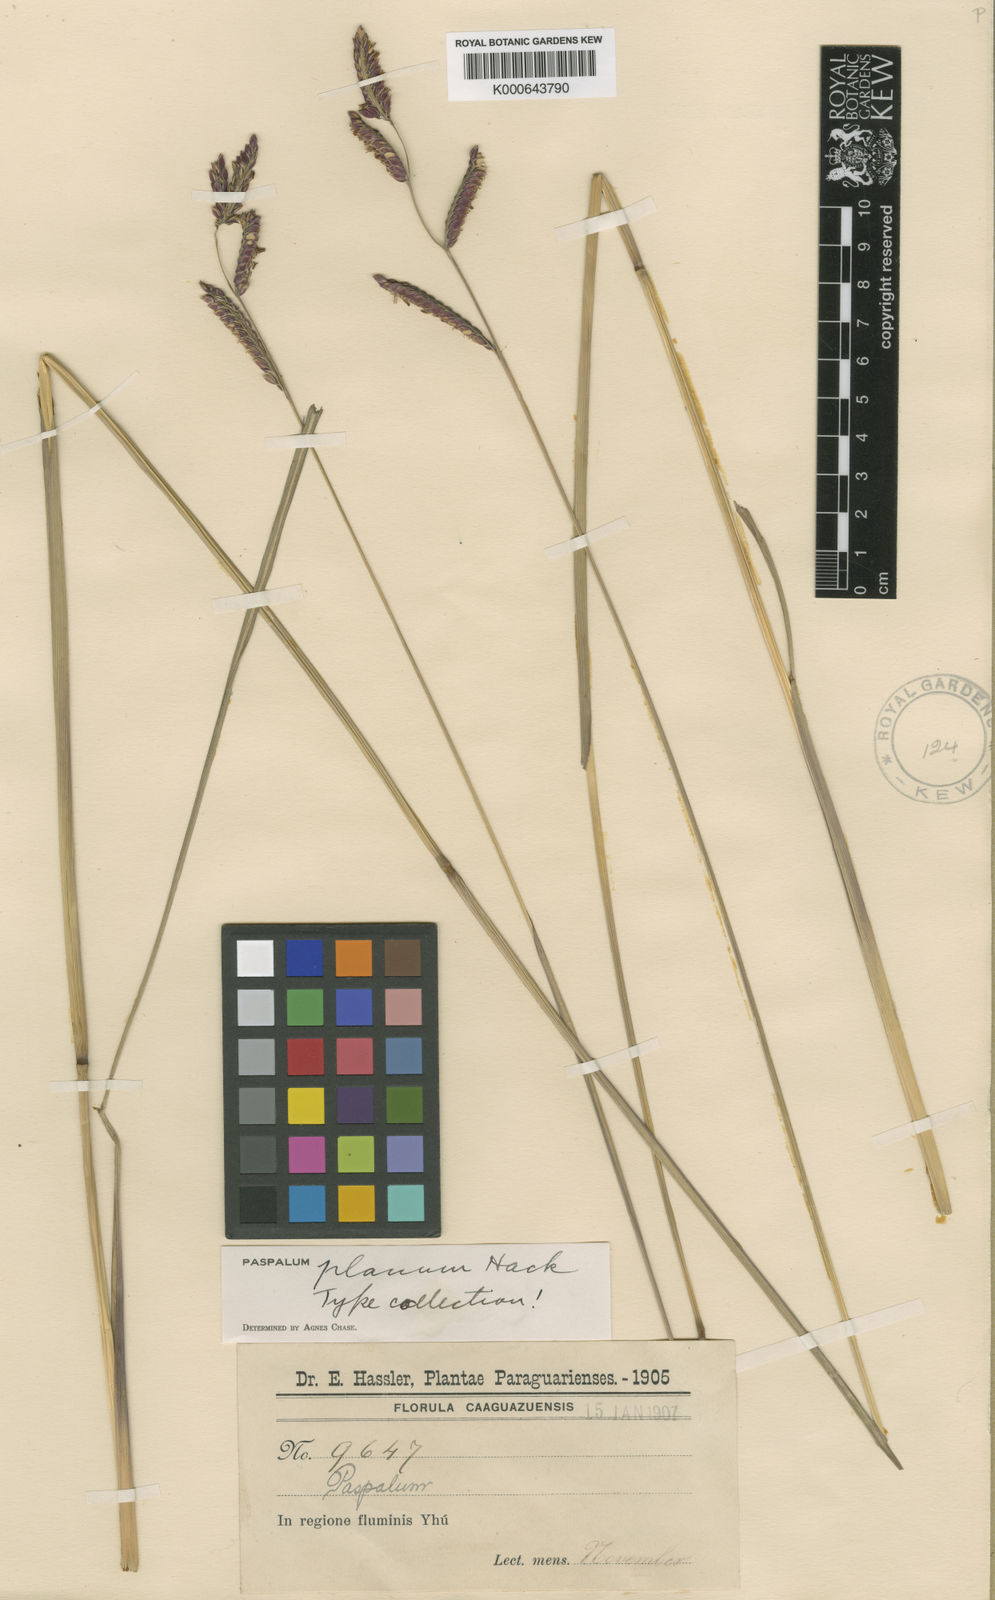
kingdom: Plantae
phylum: Tracheophyta
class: Liliopsida
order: Poales
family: Poaceae
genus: Paspalum
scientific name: Paspalum planum
